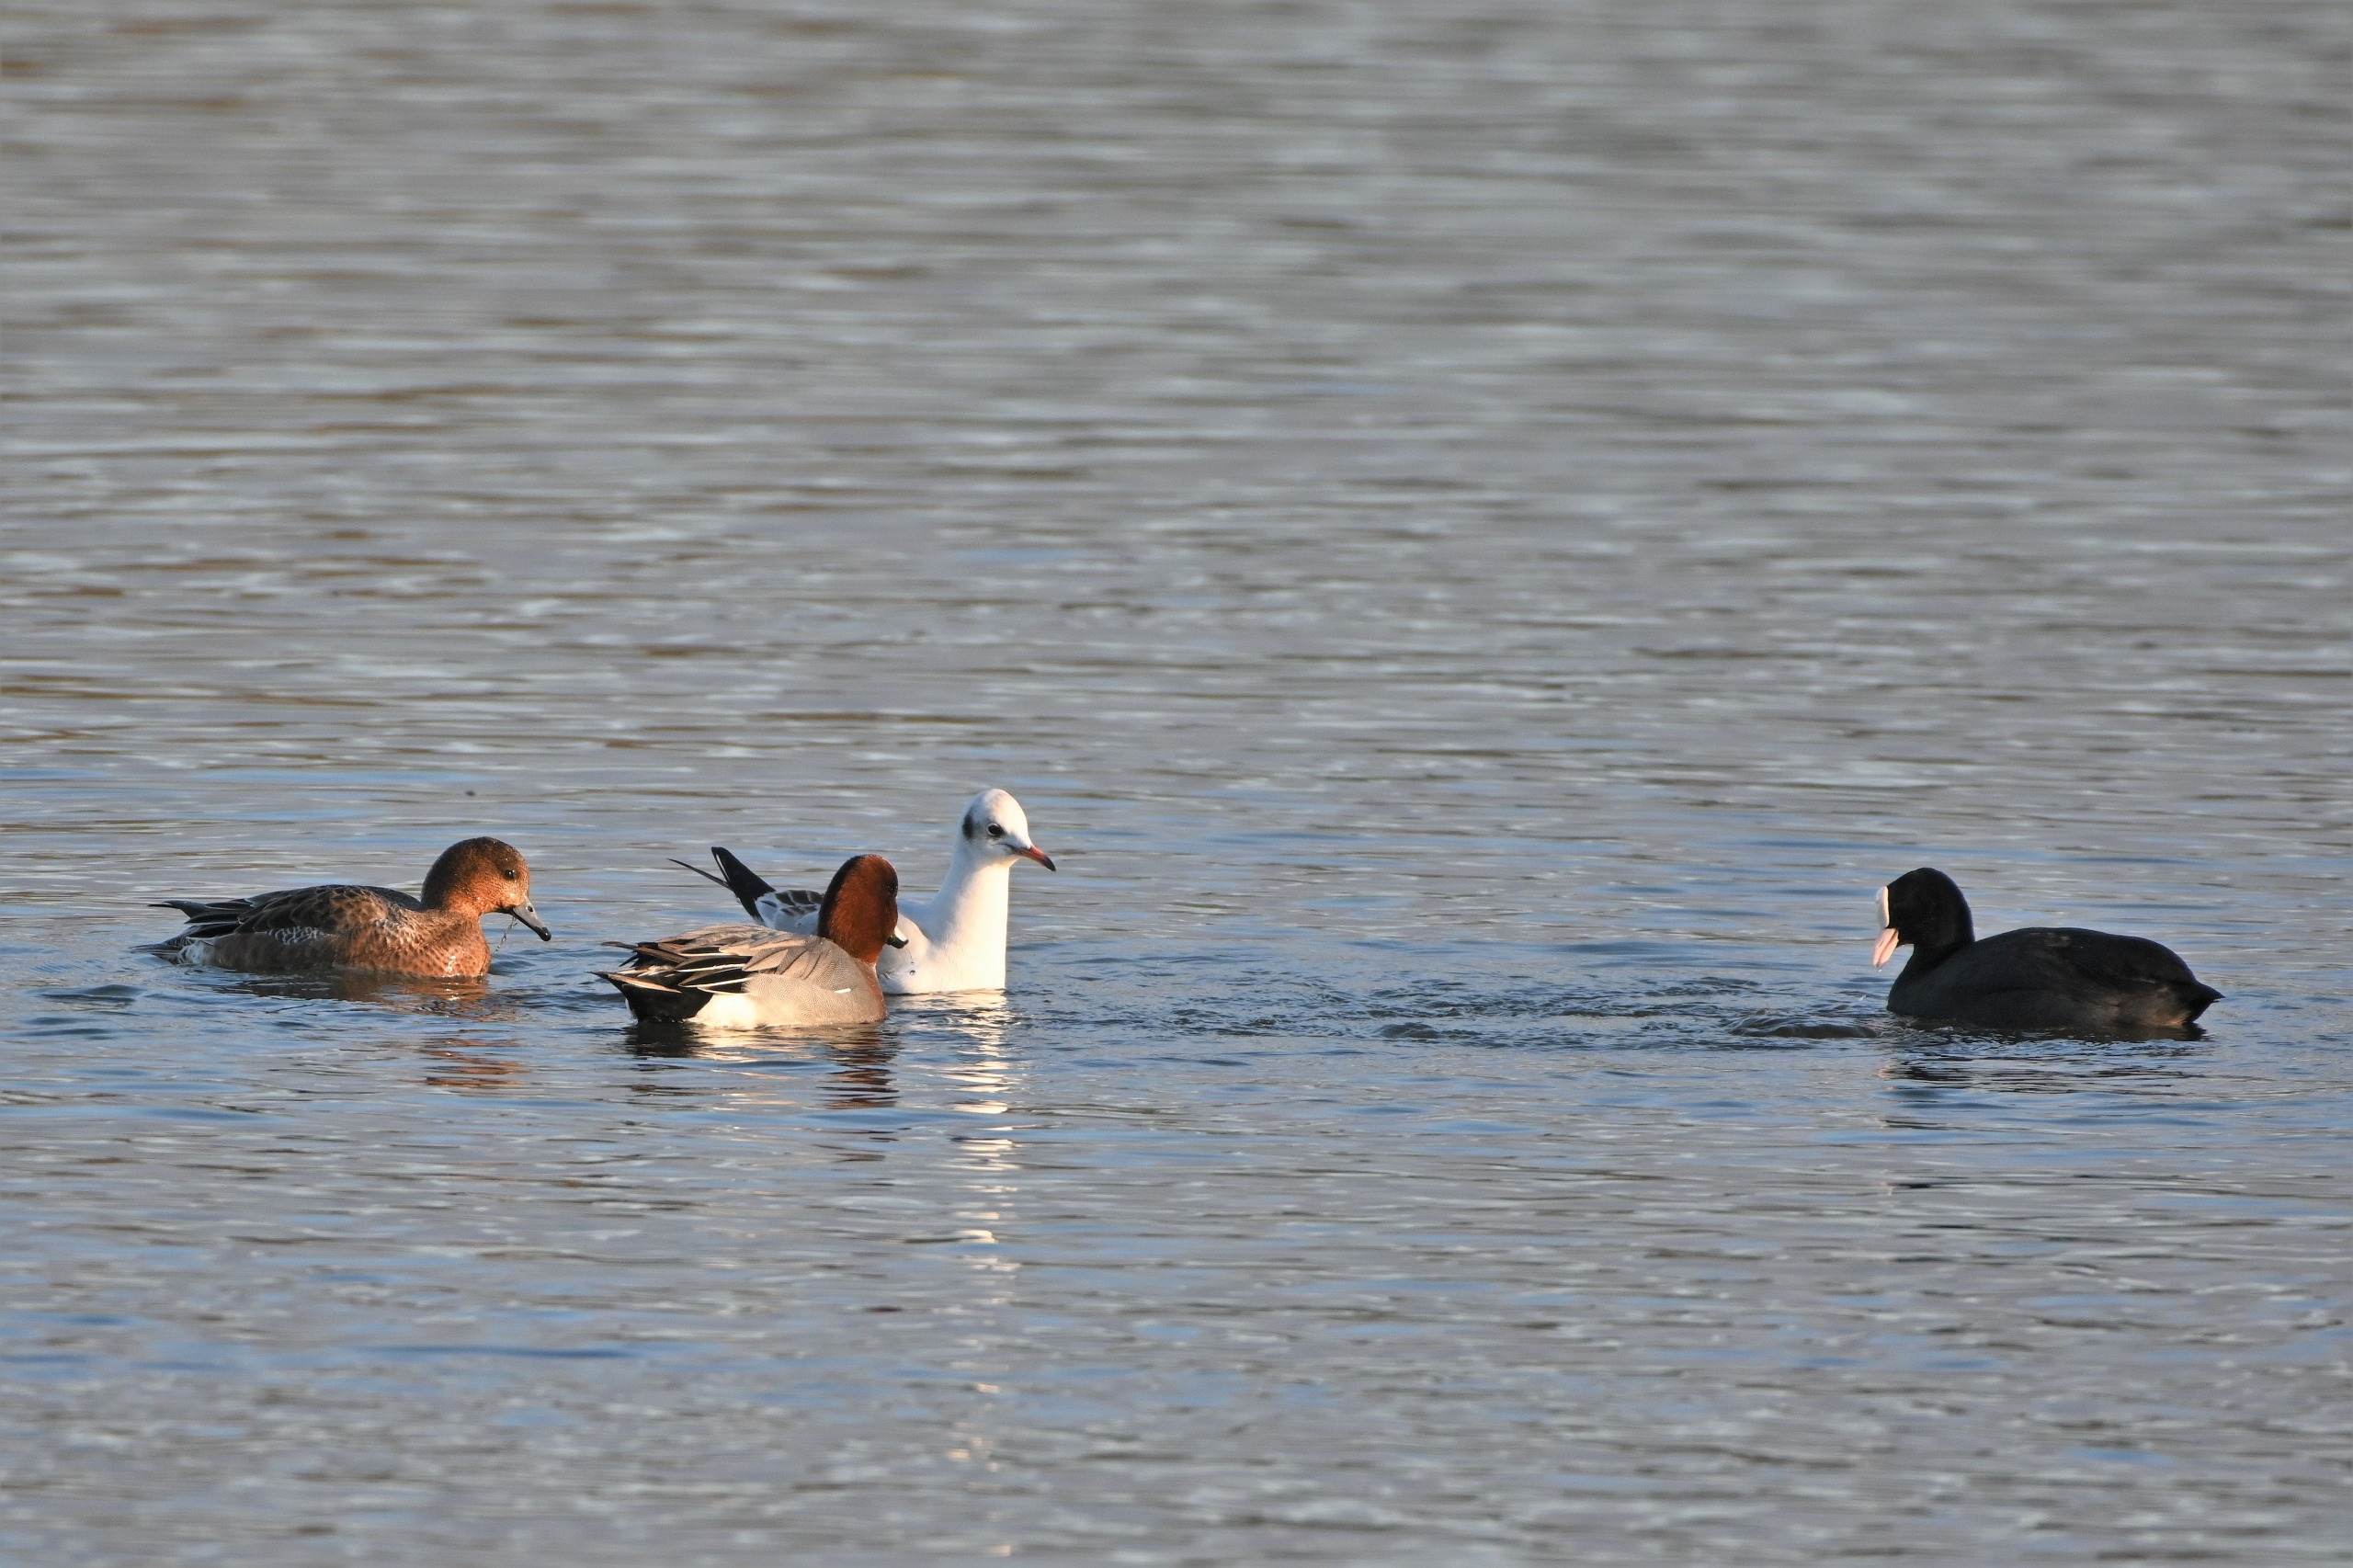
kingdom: Animalia
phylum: Chordata
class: Aves
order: Charadriiformes
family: Laridae
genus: Chroicocephalus
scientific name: Chroicocephalus ridibundus
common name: Hættemåge
